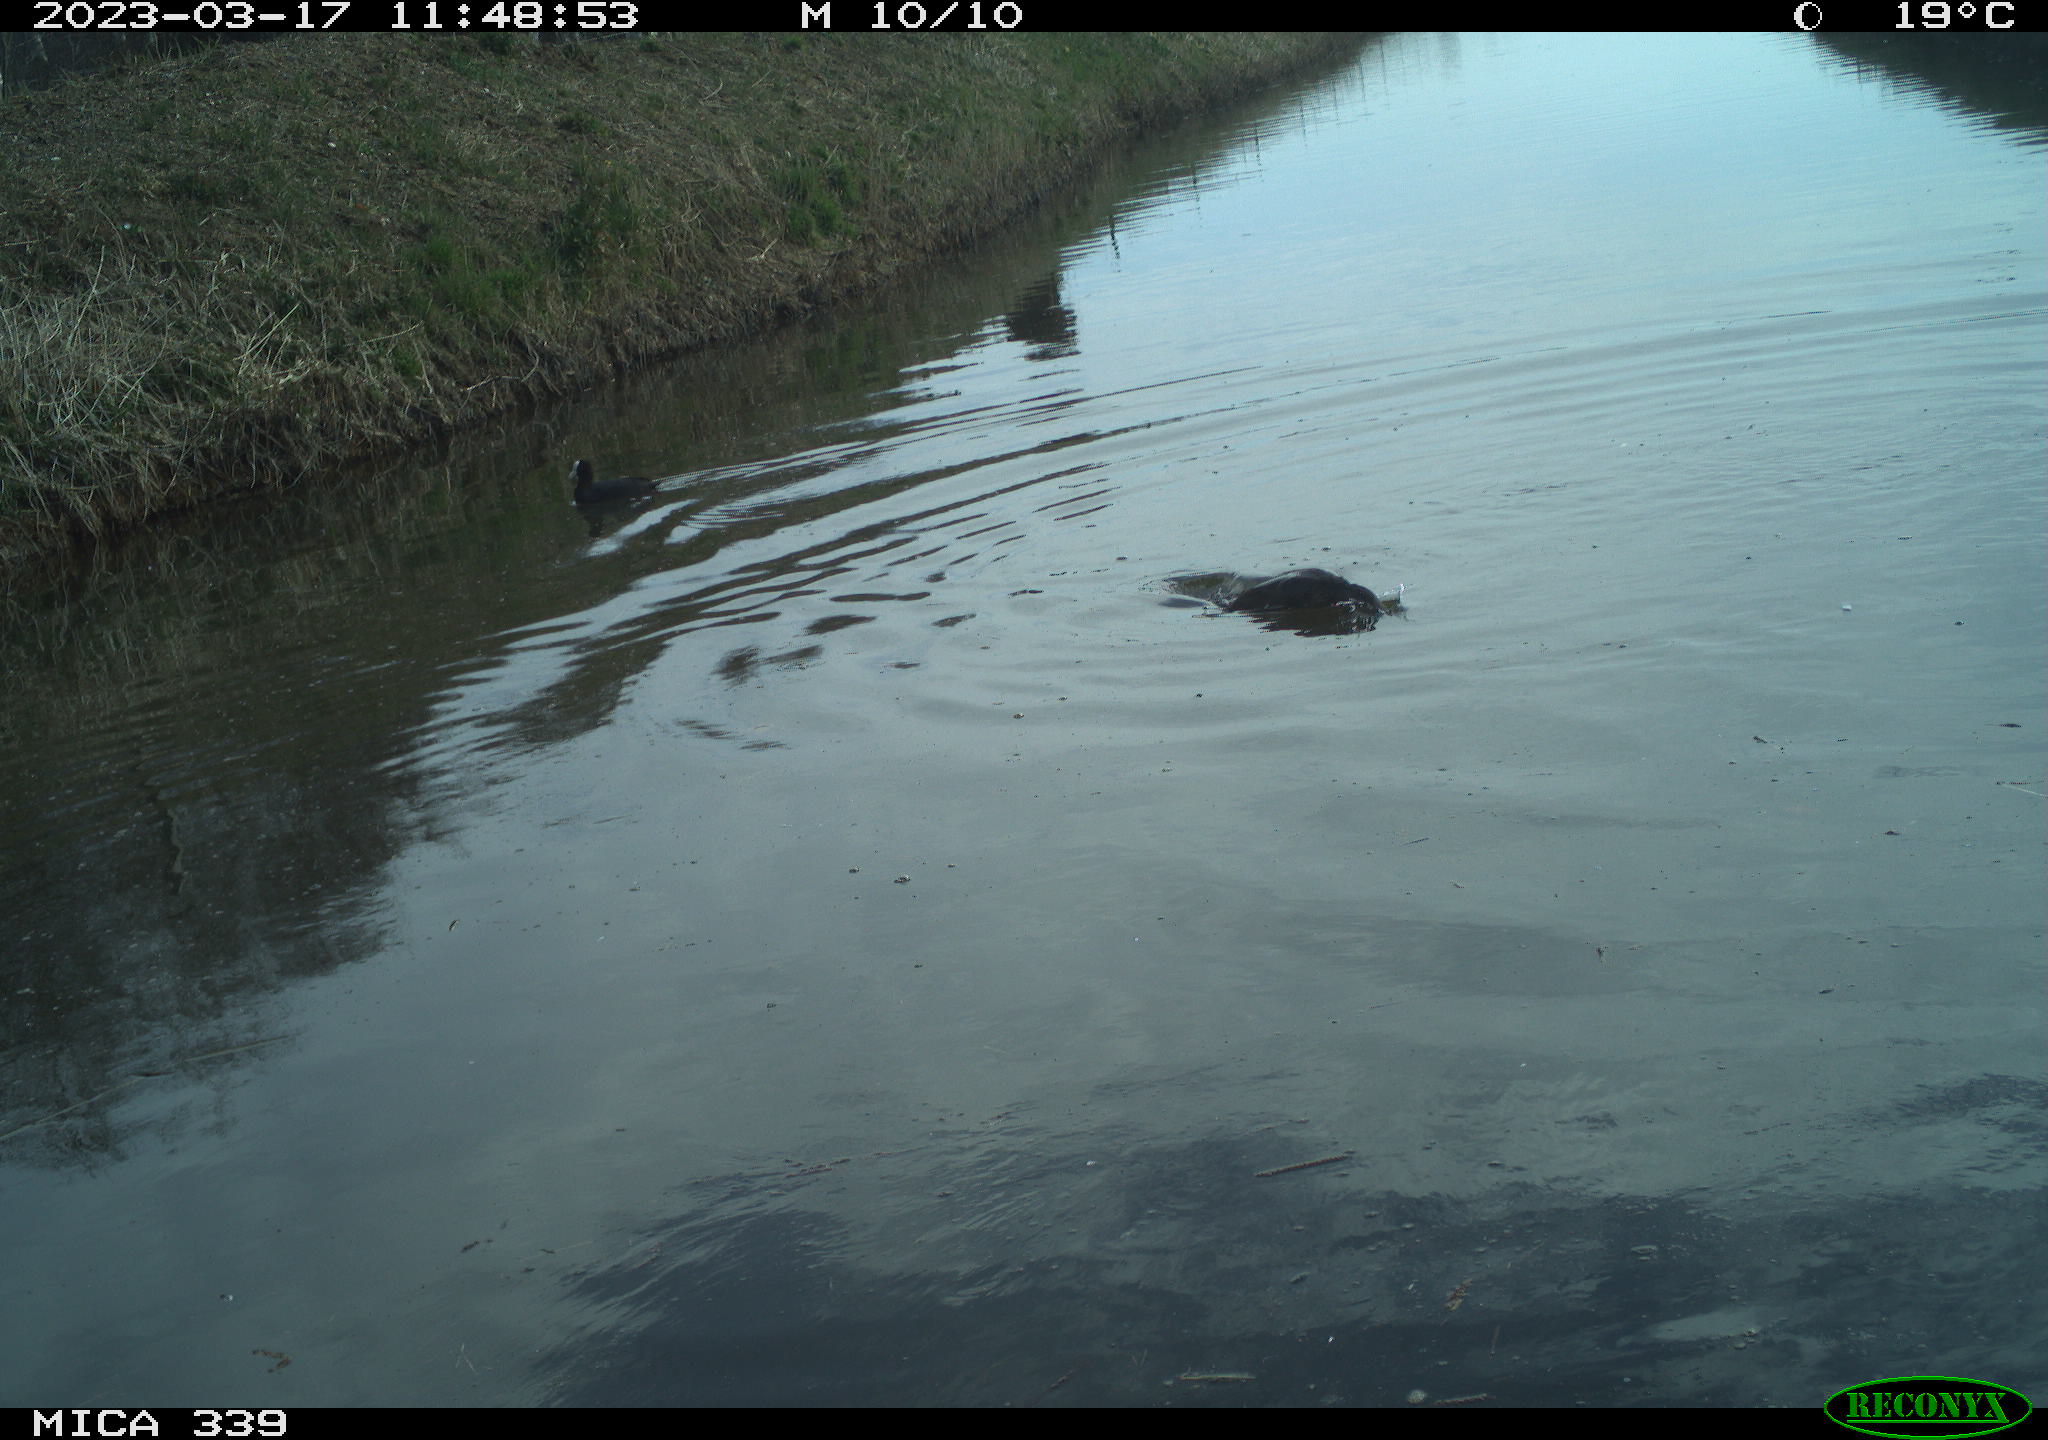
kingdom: Animalia
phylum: Chordata
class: Aves
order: Gruiformes
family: Rallidae
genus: Fulica
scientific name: Fulica atra
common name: Eurasian coot
